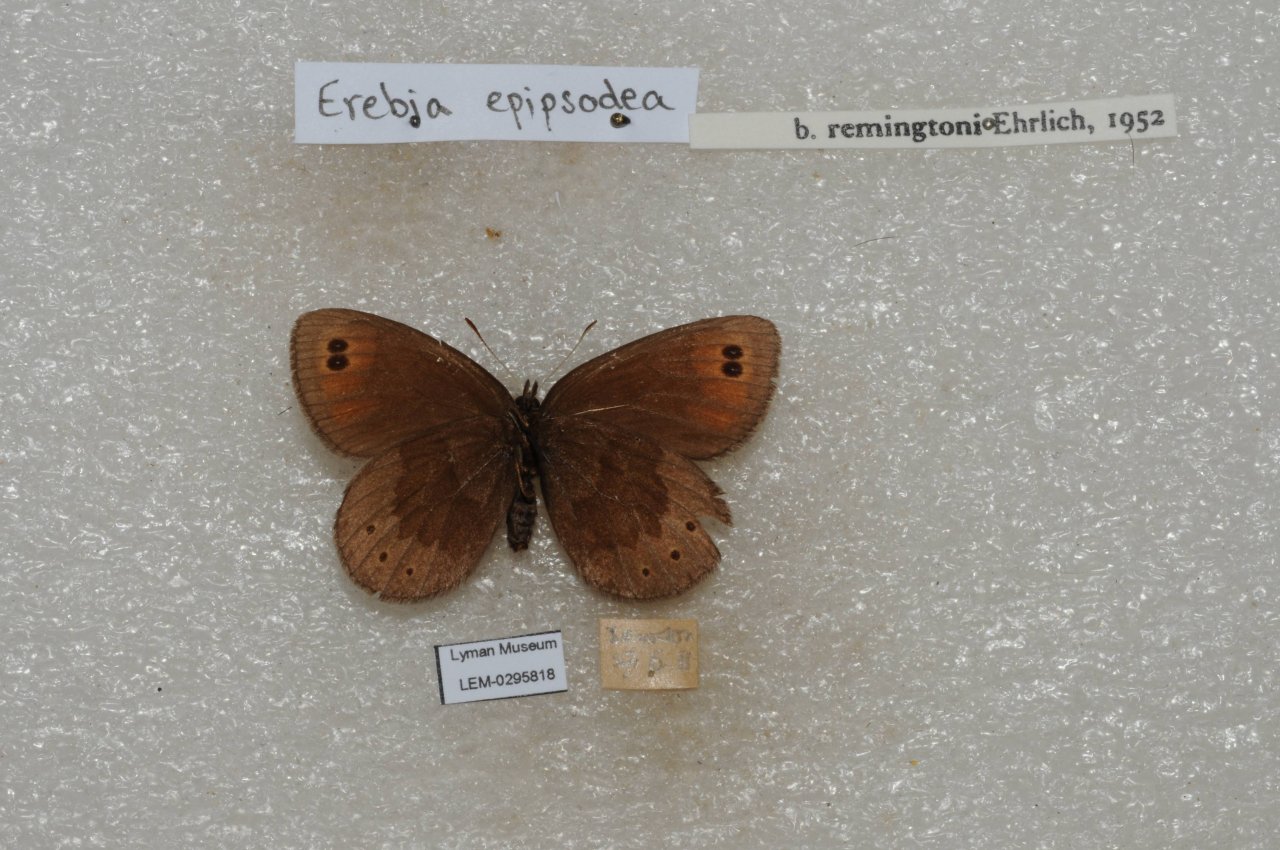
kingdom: Animalia
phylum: Arthropoda
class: Insecta
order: Lepidoptera
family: Nymphalidae
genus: Erebia
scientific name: Erebia epipsodea
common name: Common Alpine
